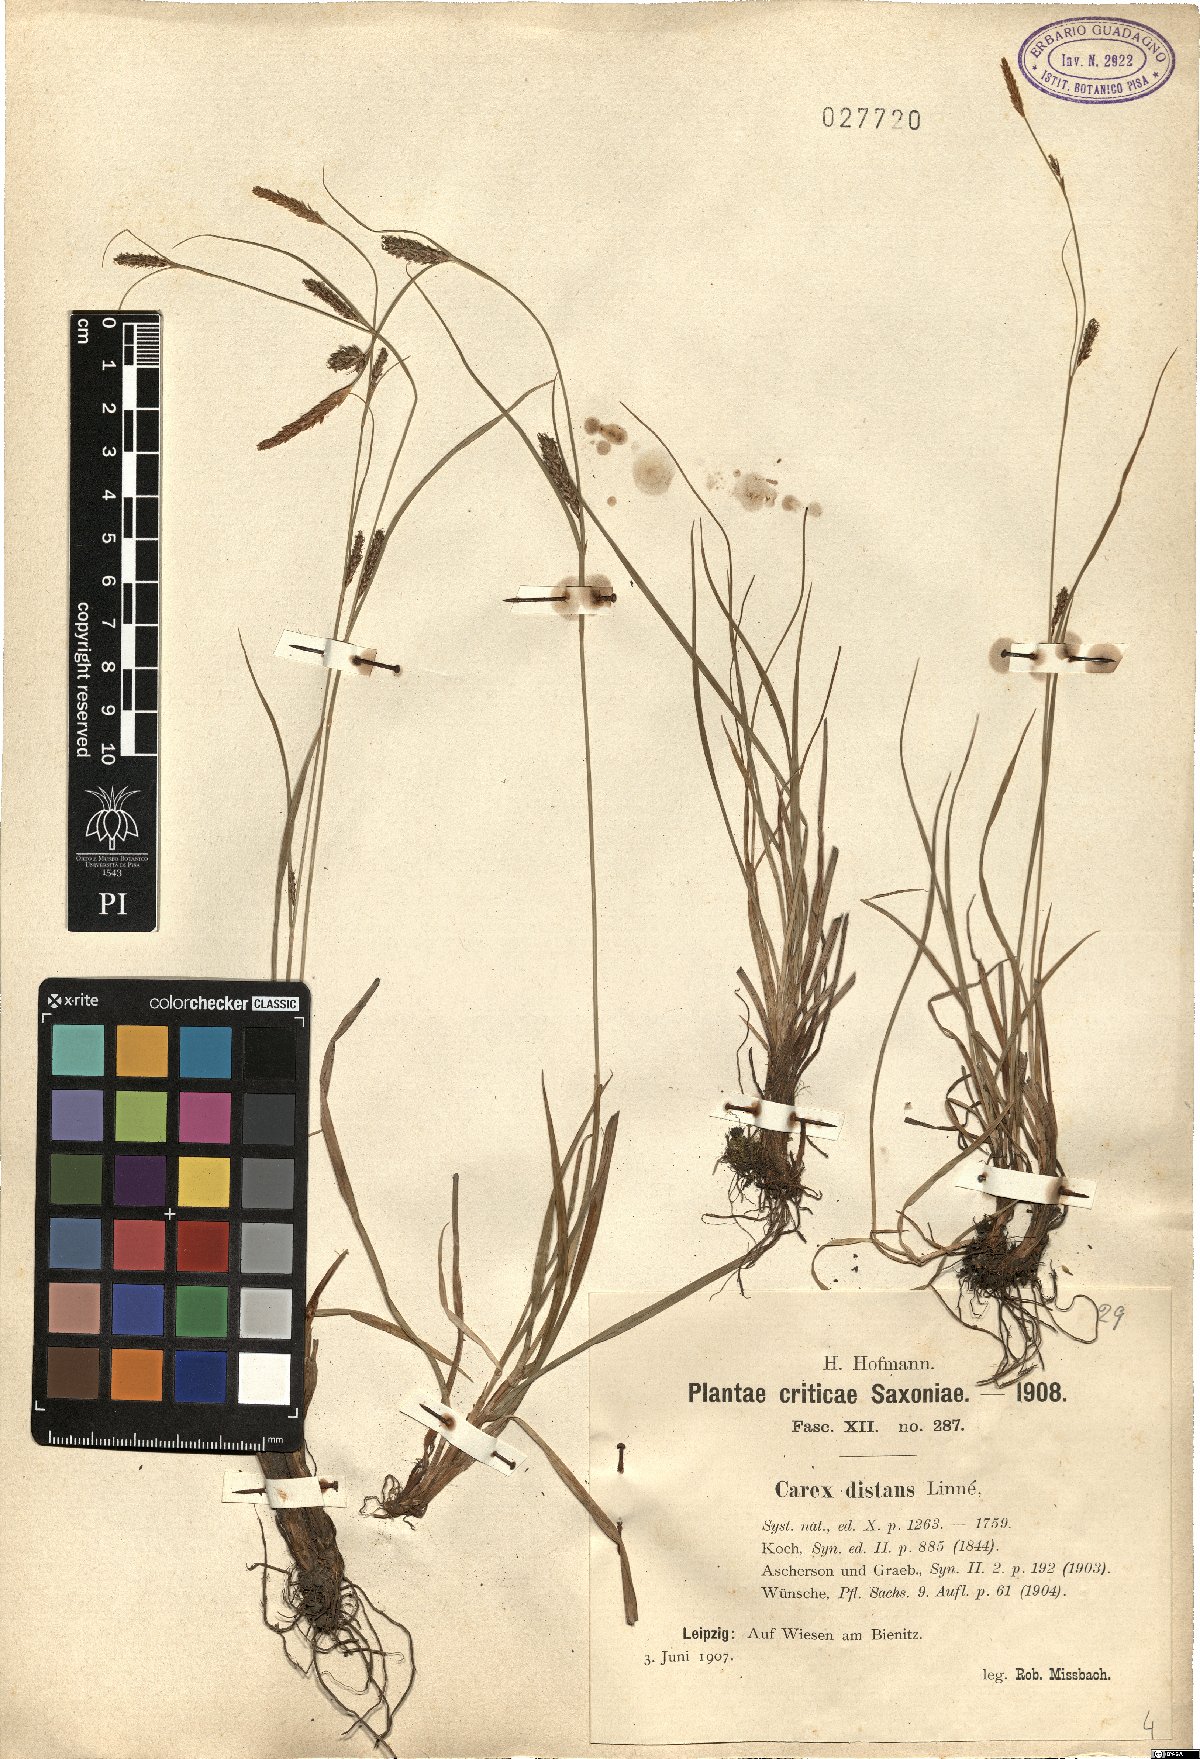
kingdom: Plantae
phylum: Tracheophyta
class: Liliopsida
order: Poales
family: Cyperaceae
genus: Carex
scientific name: Carex distans
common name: Distant sedge
